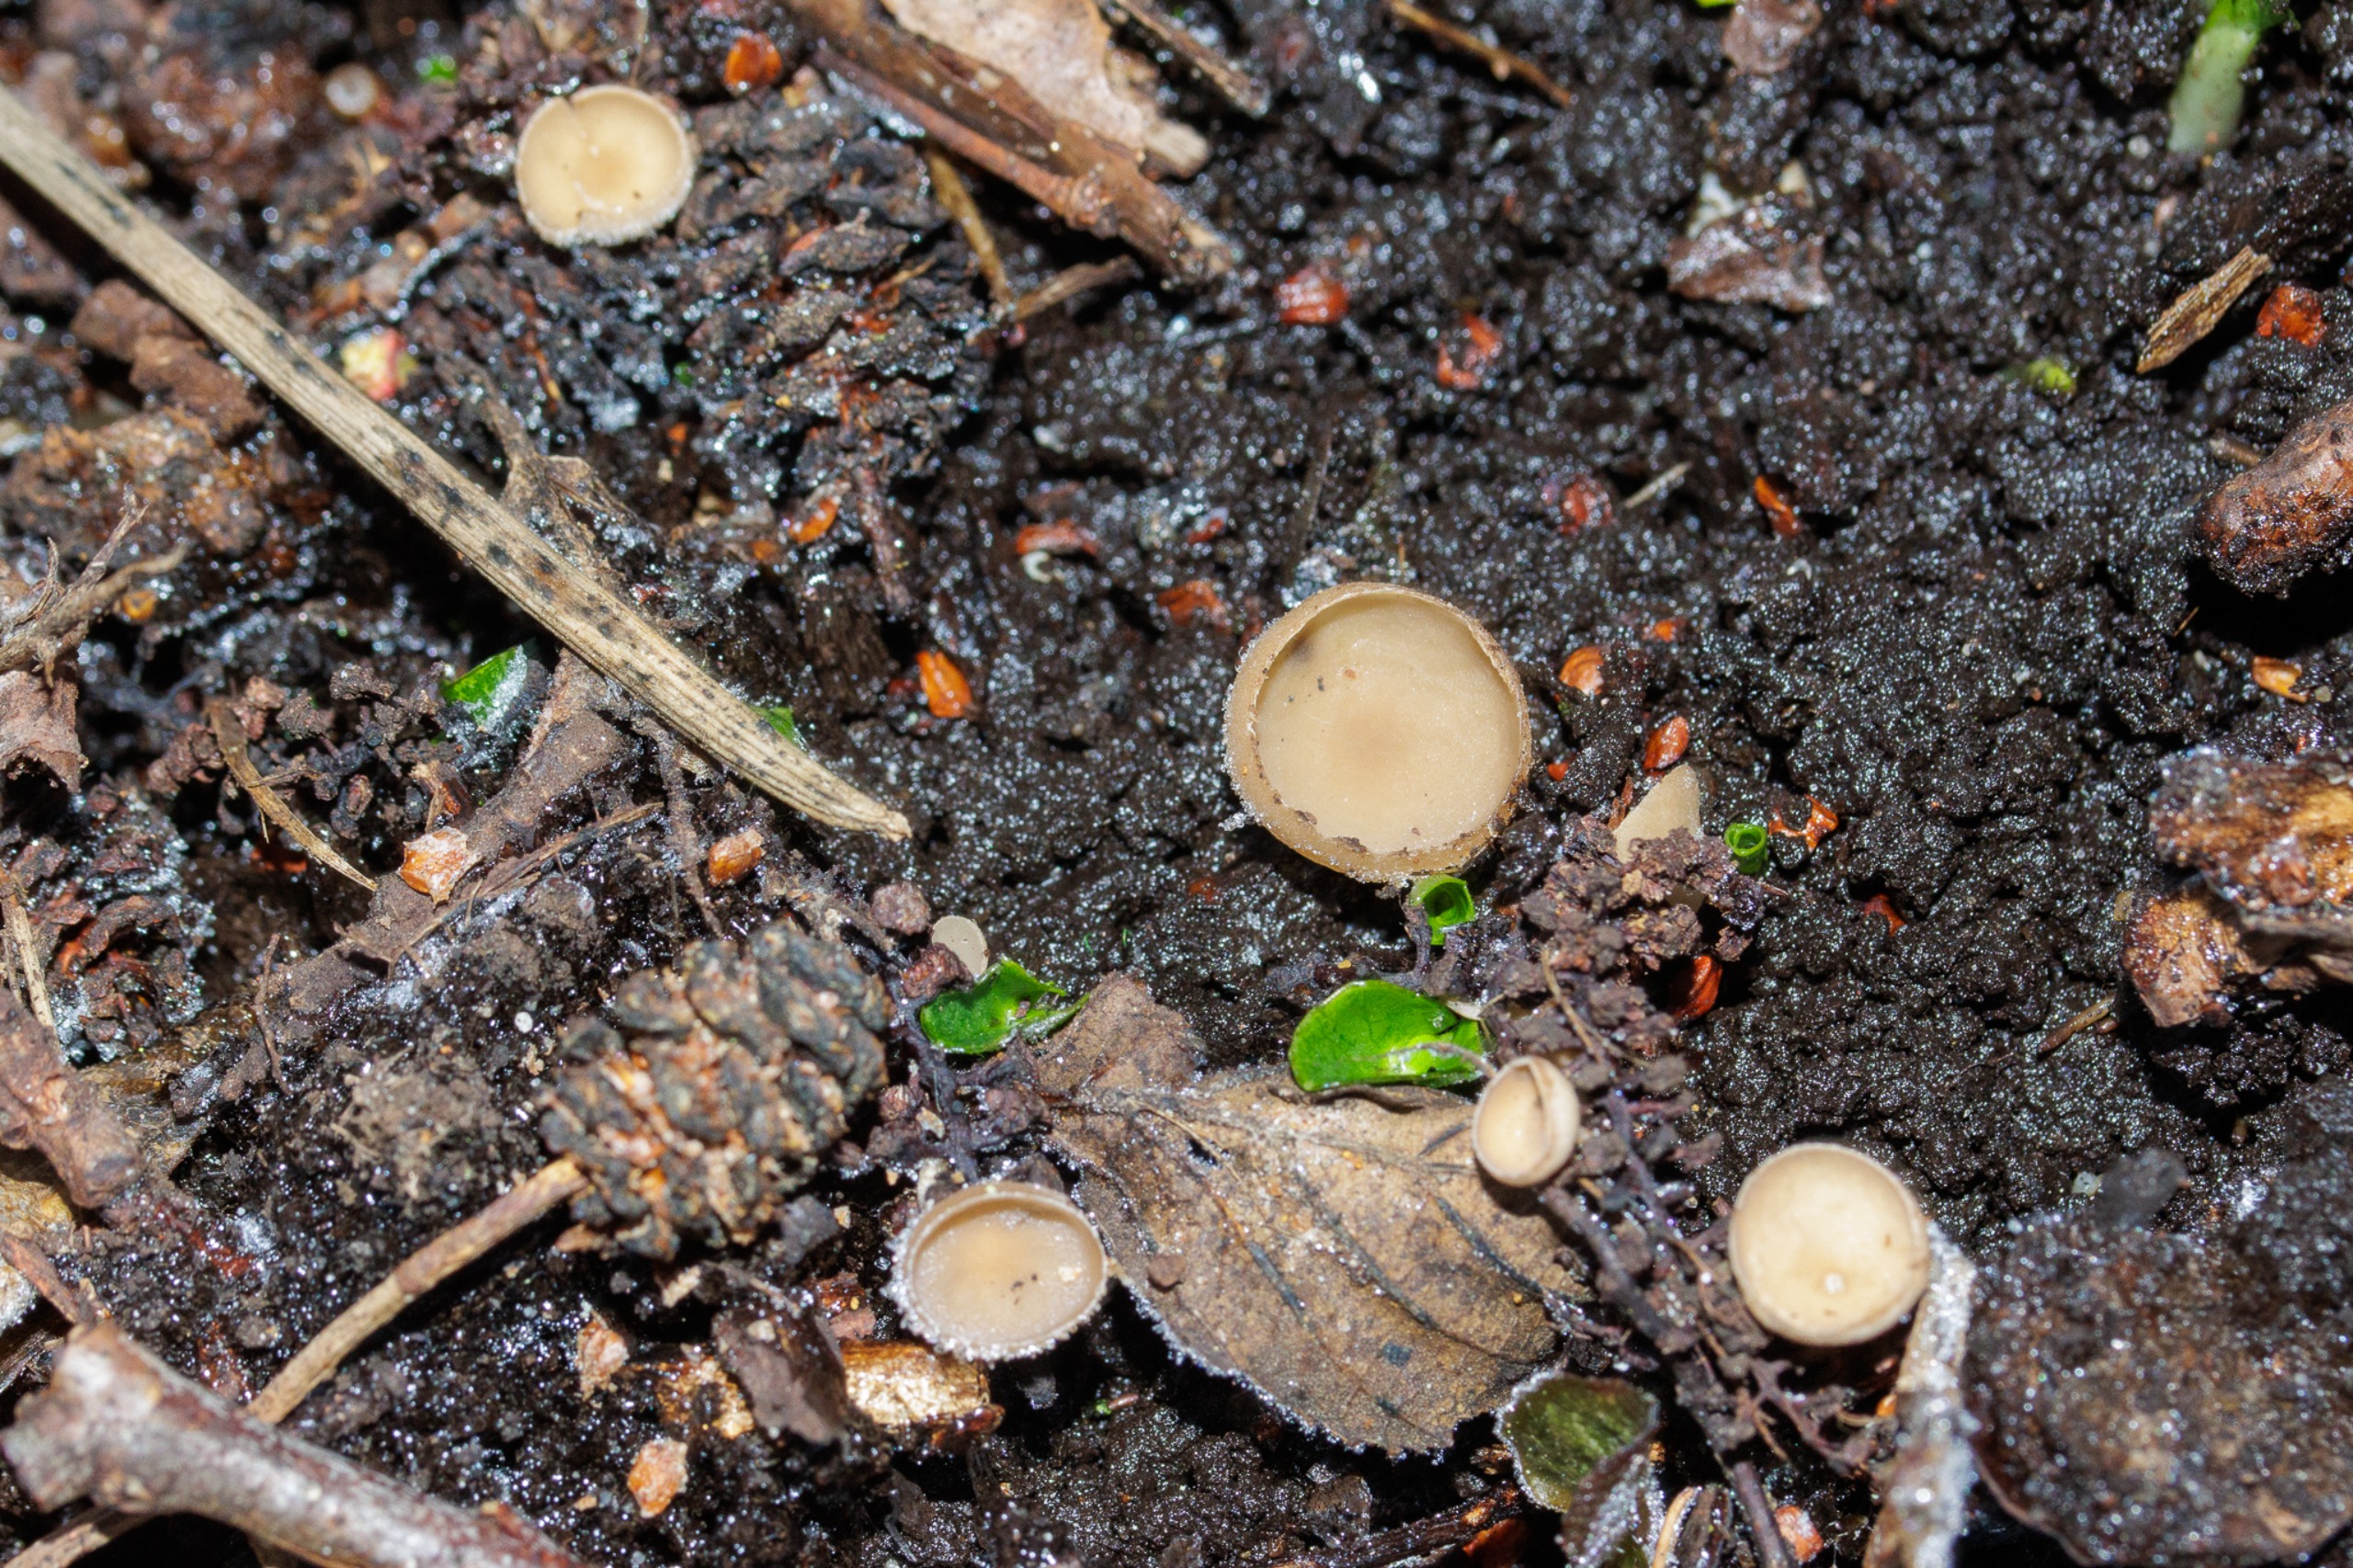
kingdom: Fungi
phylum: Ascomycota
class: Leotiomycetes
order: Helotiales
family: Sclerotiniaceae
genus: Ciboria
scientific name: Ciboria amentacea
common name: Ellerakle-knoldskive
